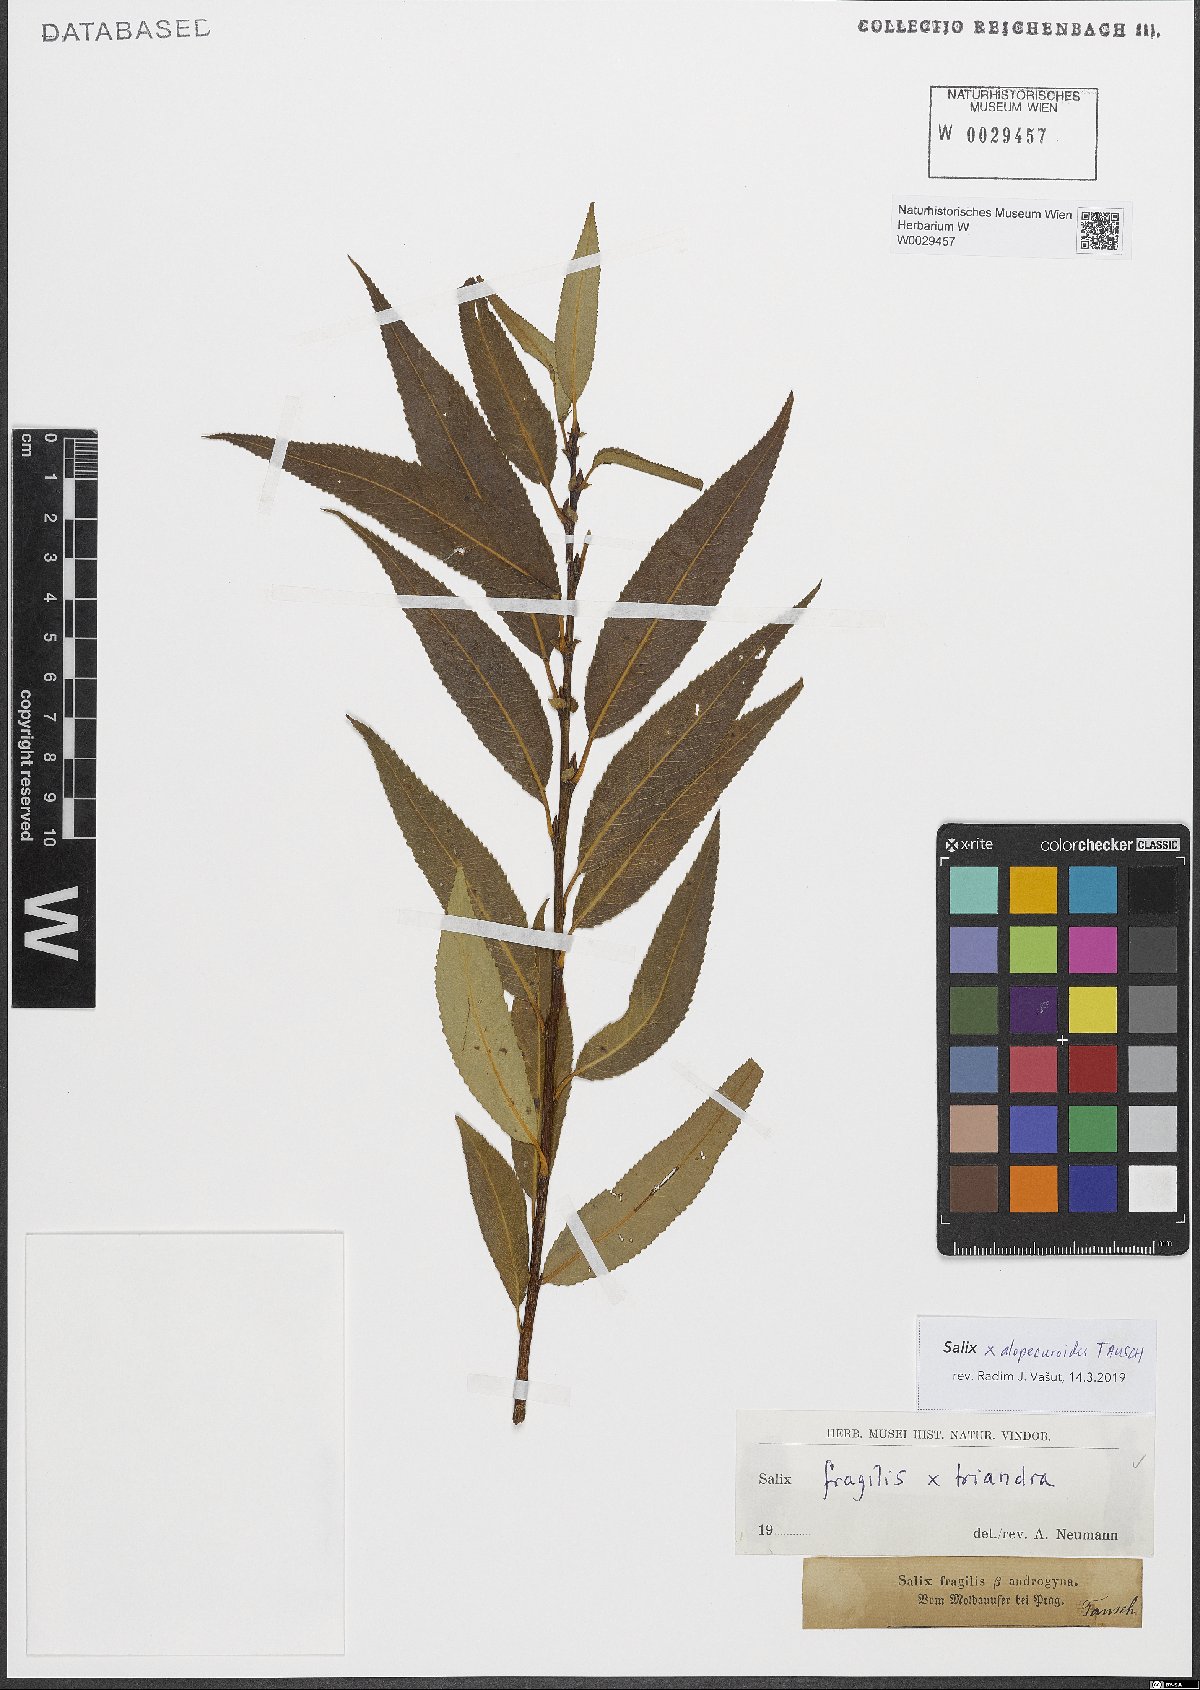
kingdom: Plantae
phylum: Tracheophyta
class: Magnoliopsida
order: Malpighiales
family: Salicaceae
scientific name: Salicaceae
